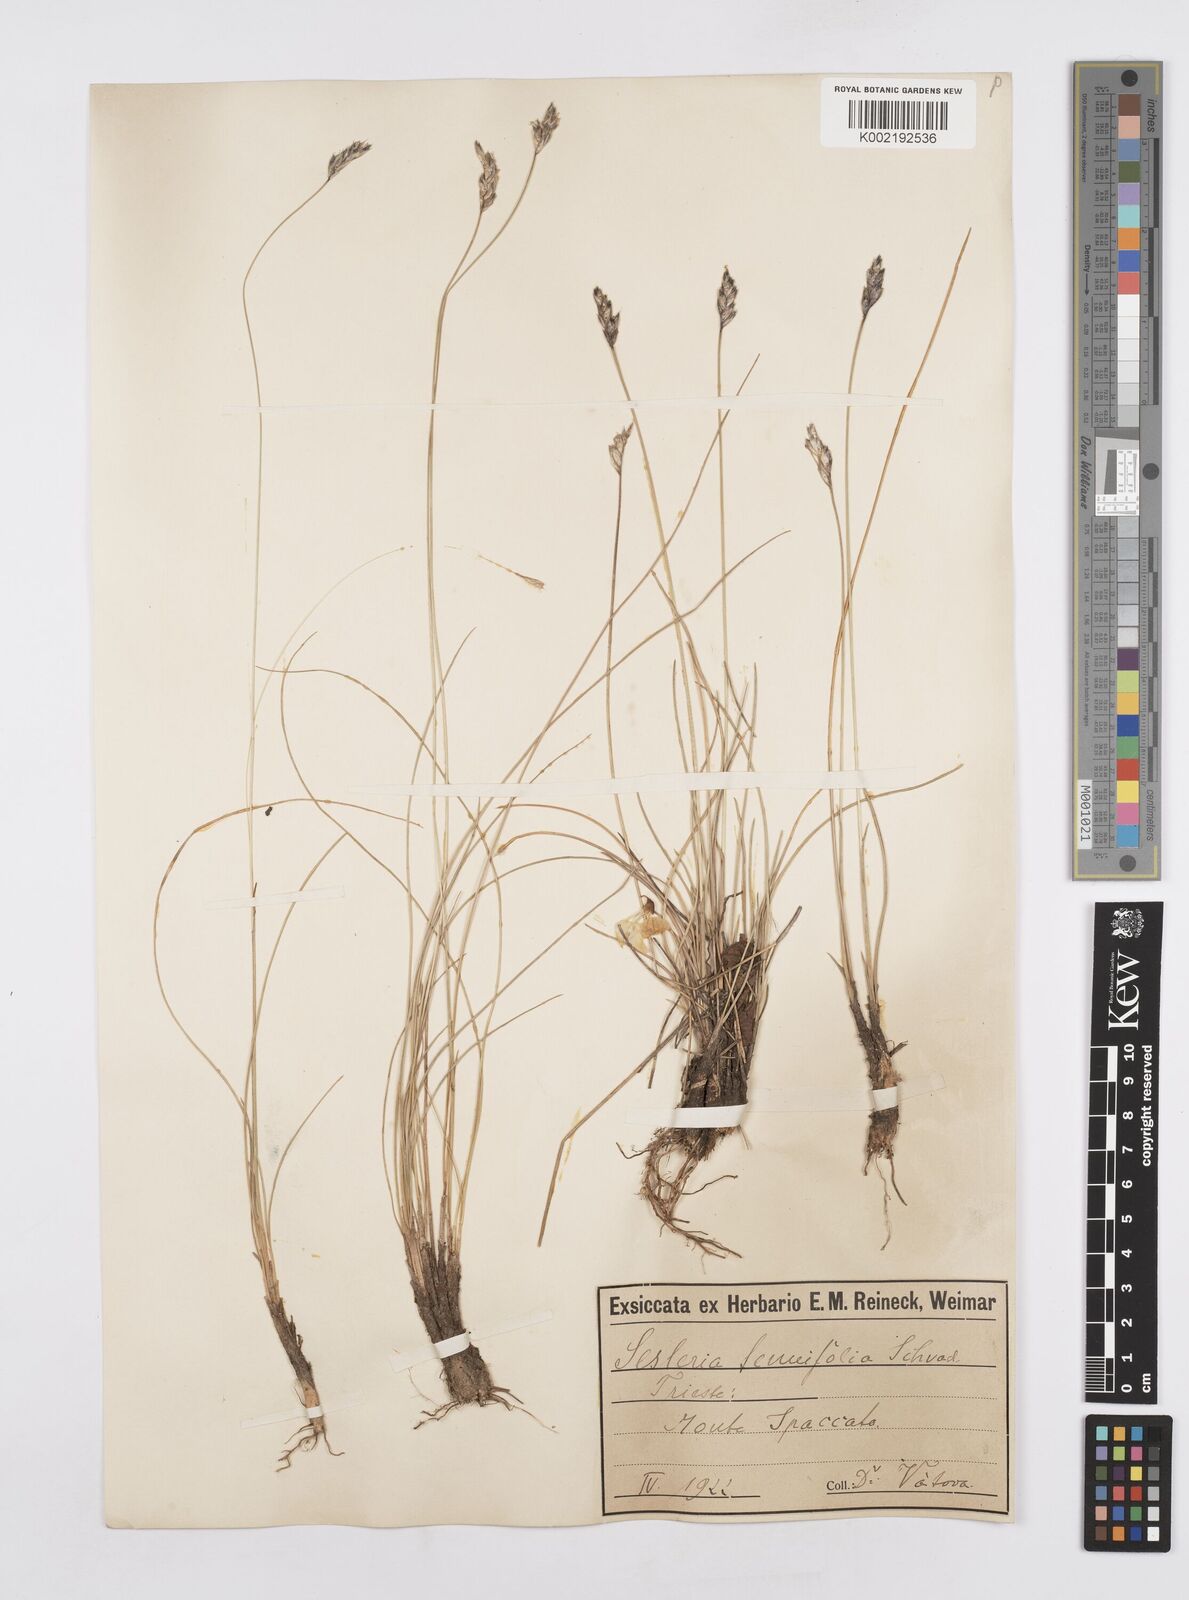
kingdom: Plantae
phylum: Tracheophyta
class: Liliopsida
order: Poales
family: Poaceae
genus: Sesleria
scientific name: Sesleria juncifolia
